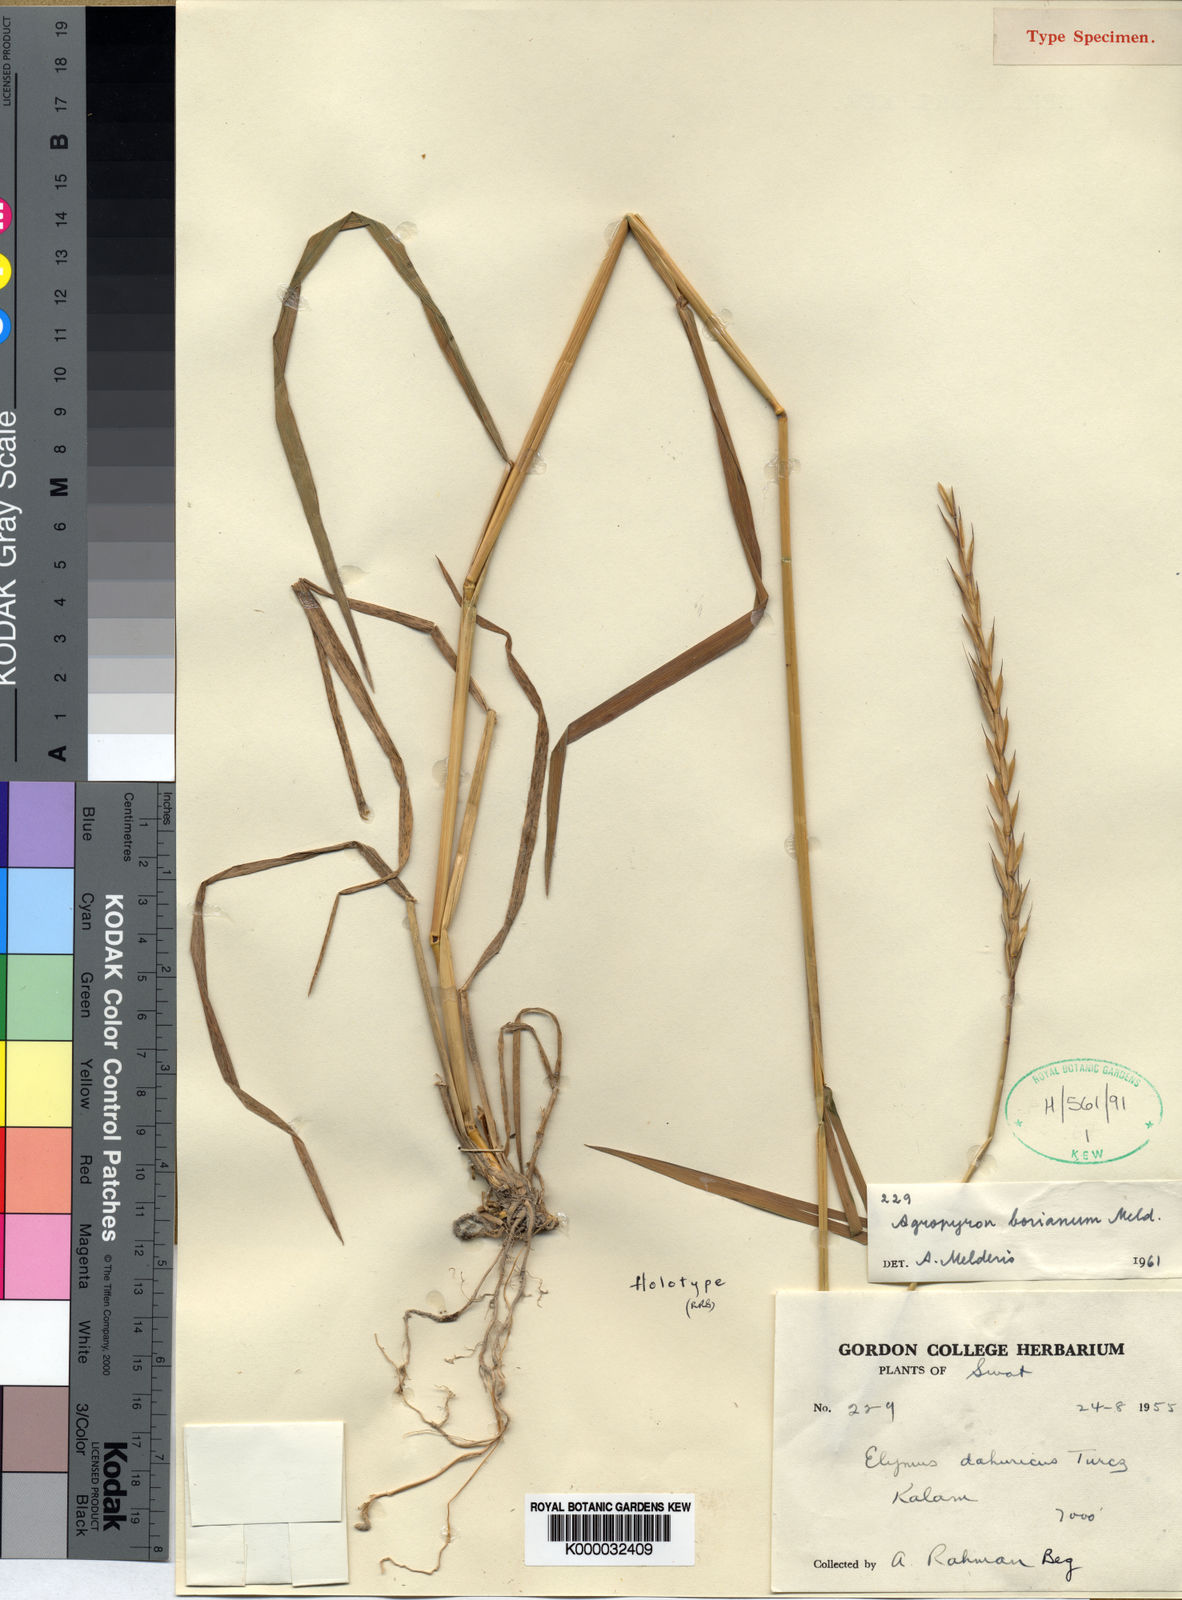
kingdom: Plantae
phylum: Tracheophyta
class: Liliopsida
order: Poales
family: Poaceae
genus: Elymus
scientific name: Elymus borianus
